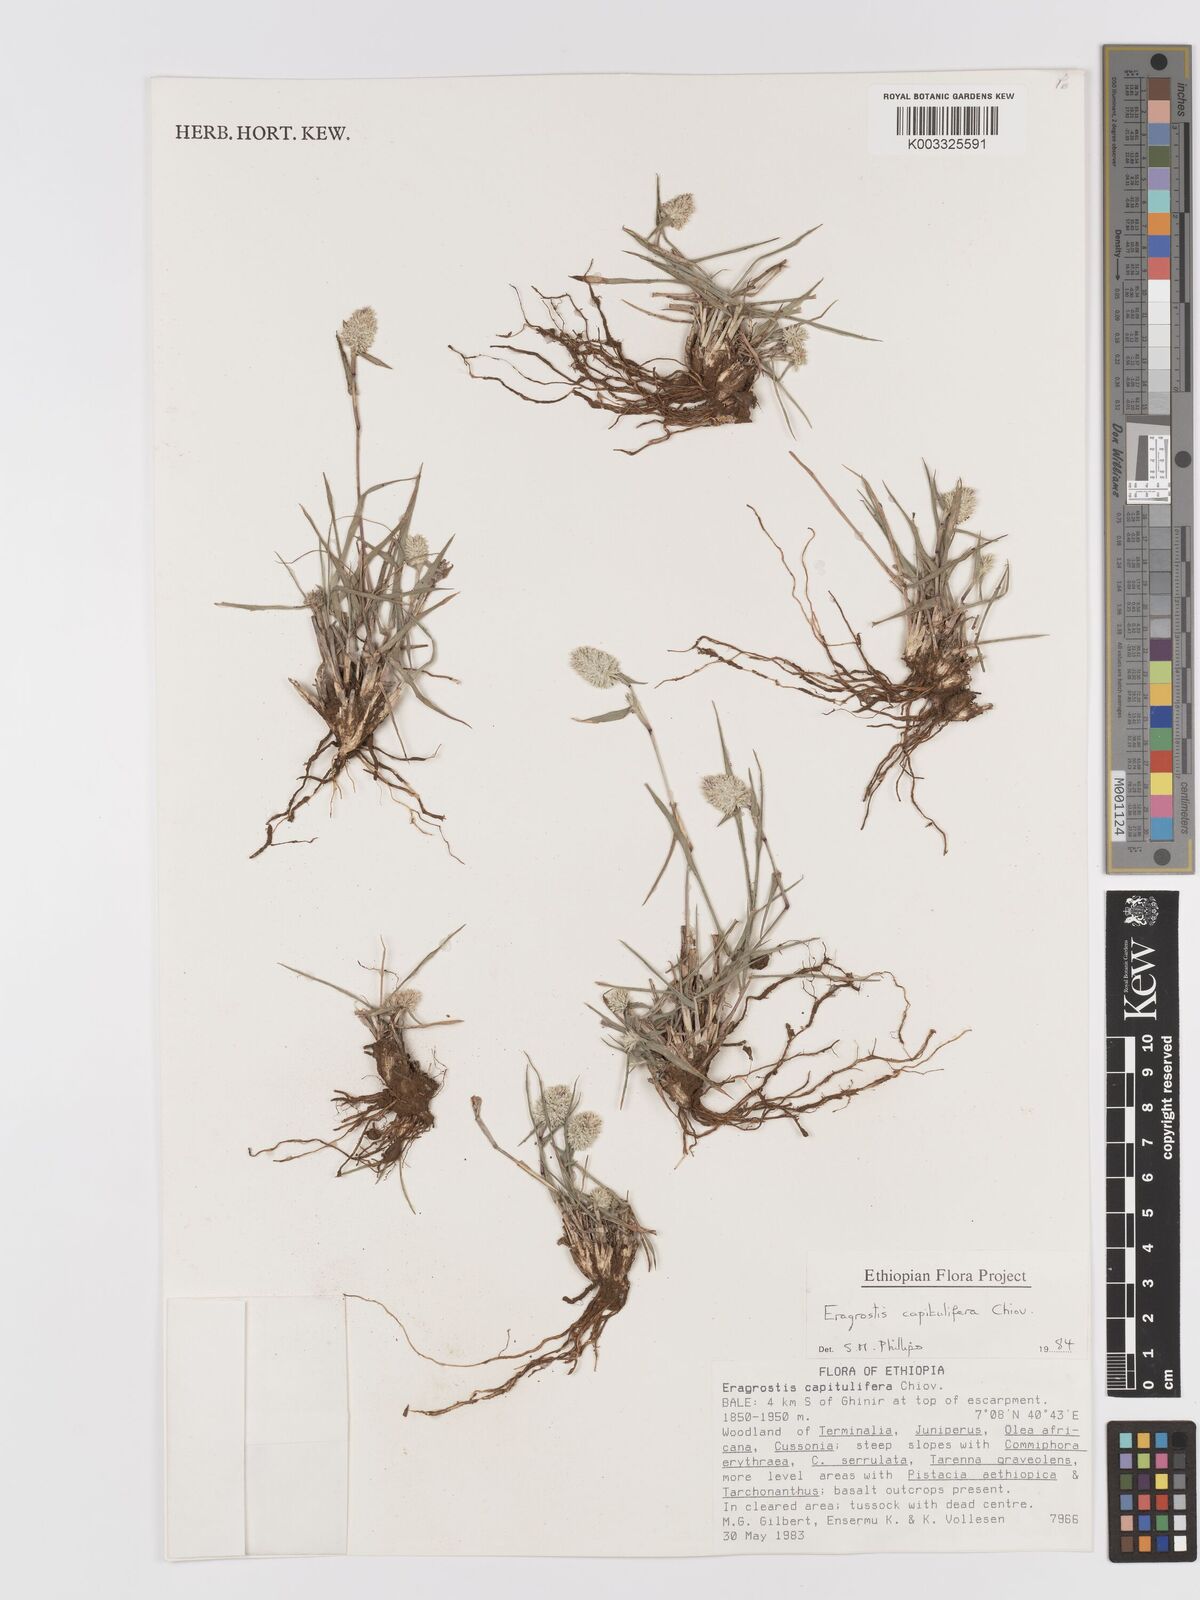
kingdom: Plantae
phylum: Tracheophyta
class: Liliopsida
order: Poales
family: Poaceae
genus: Eragrostis
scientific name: Eragrostis capitulifera
